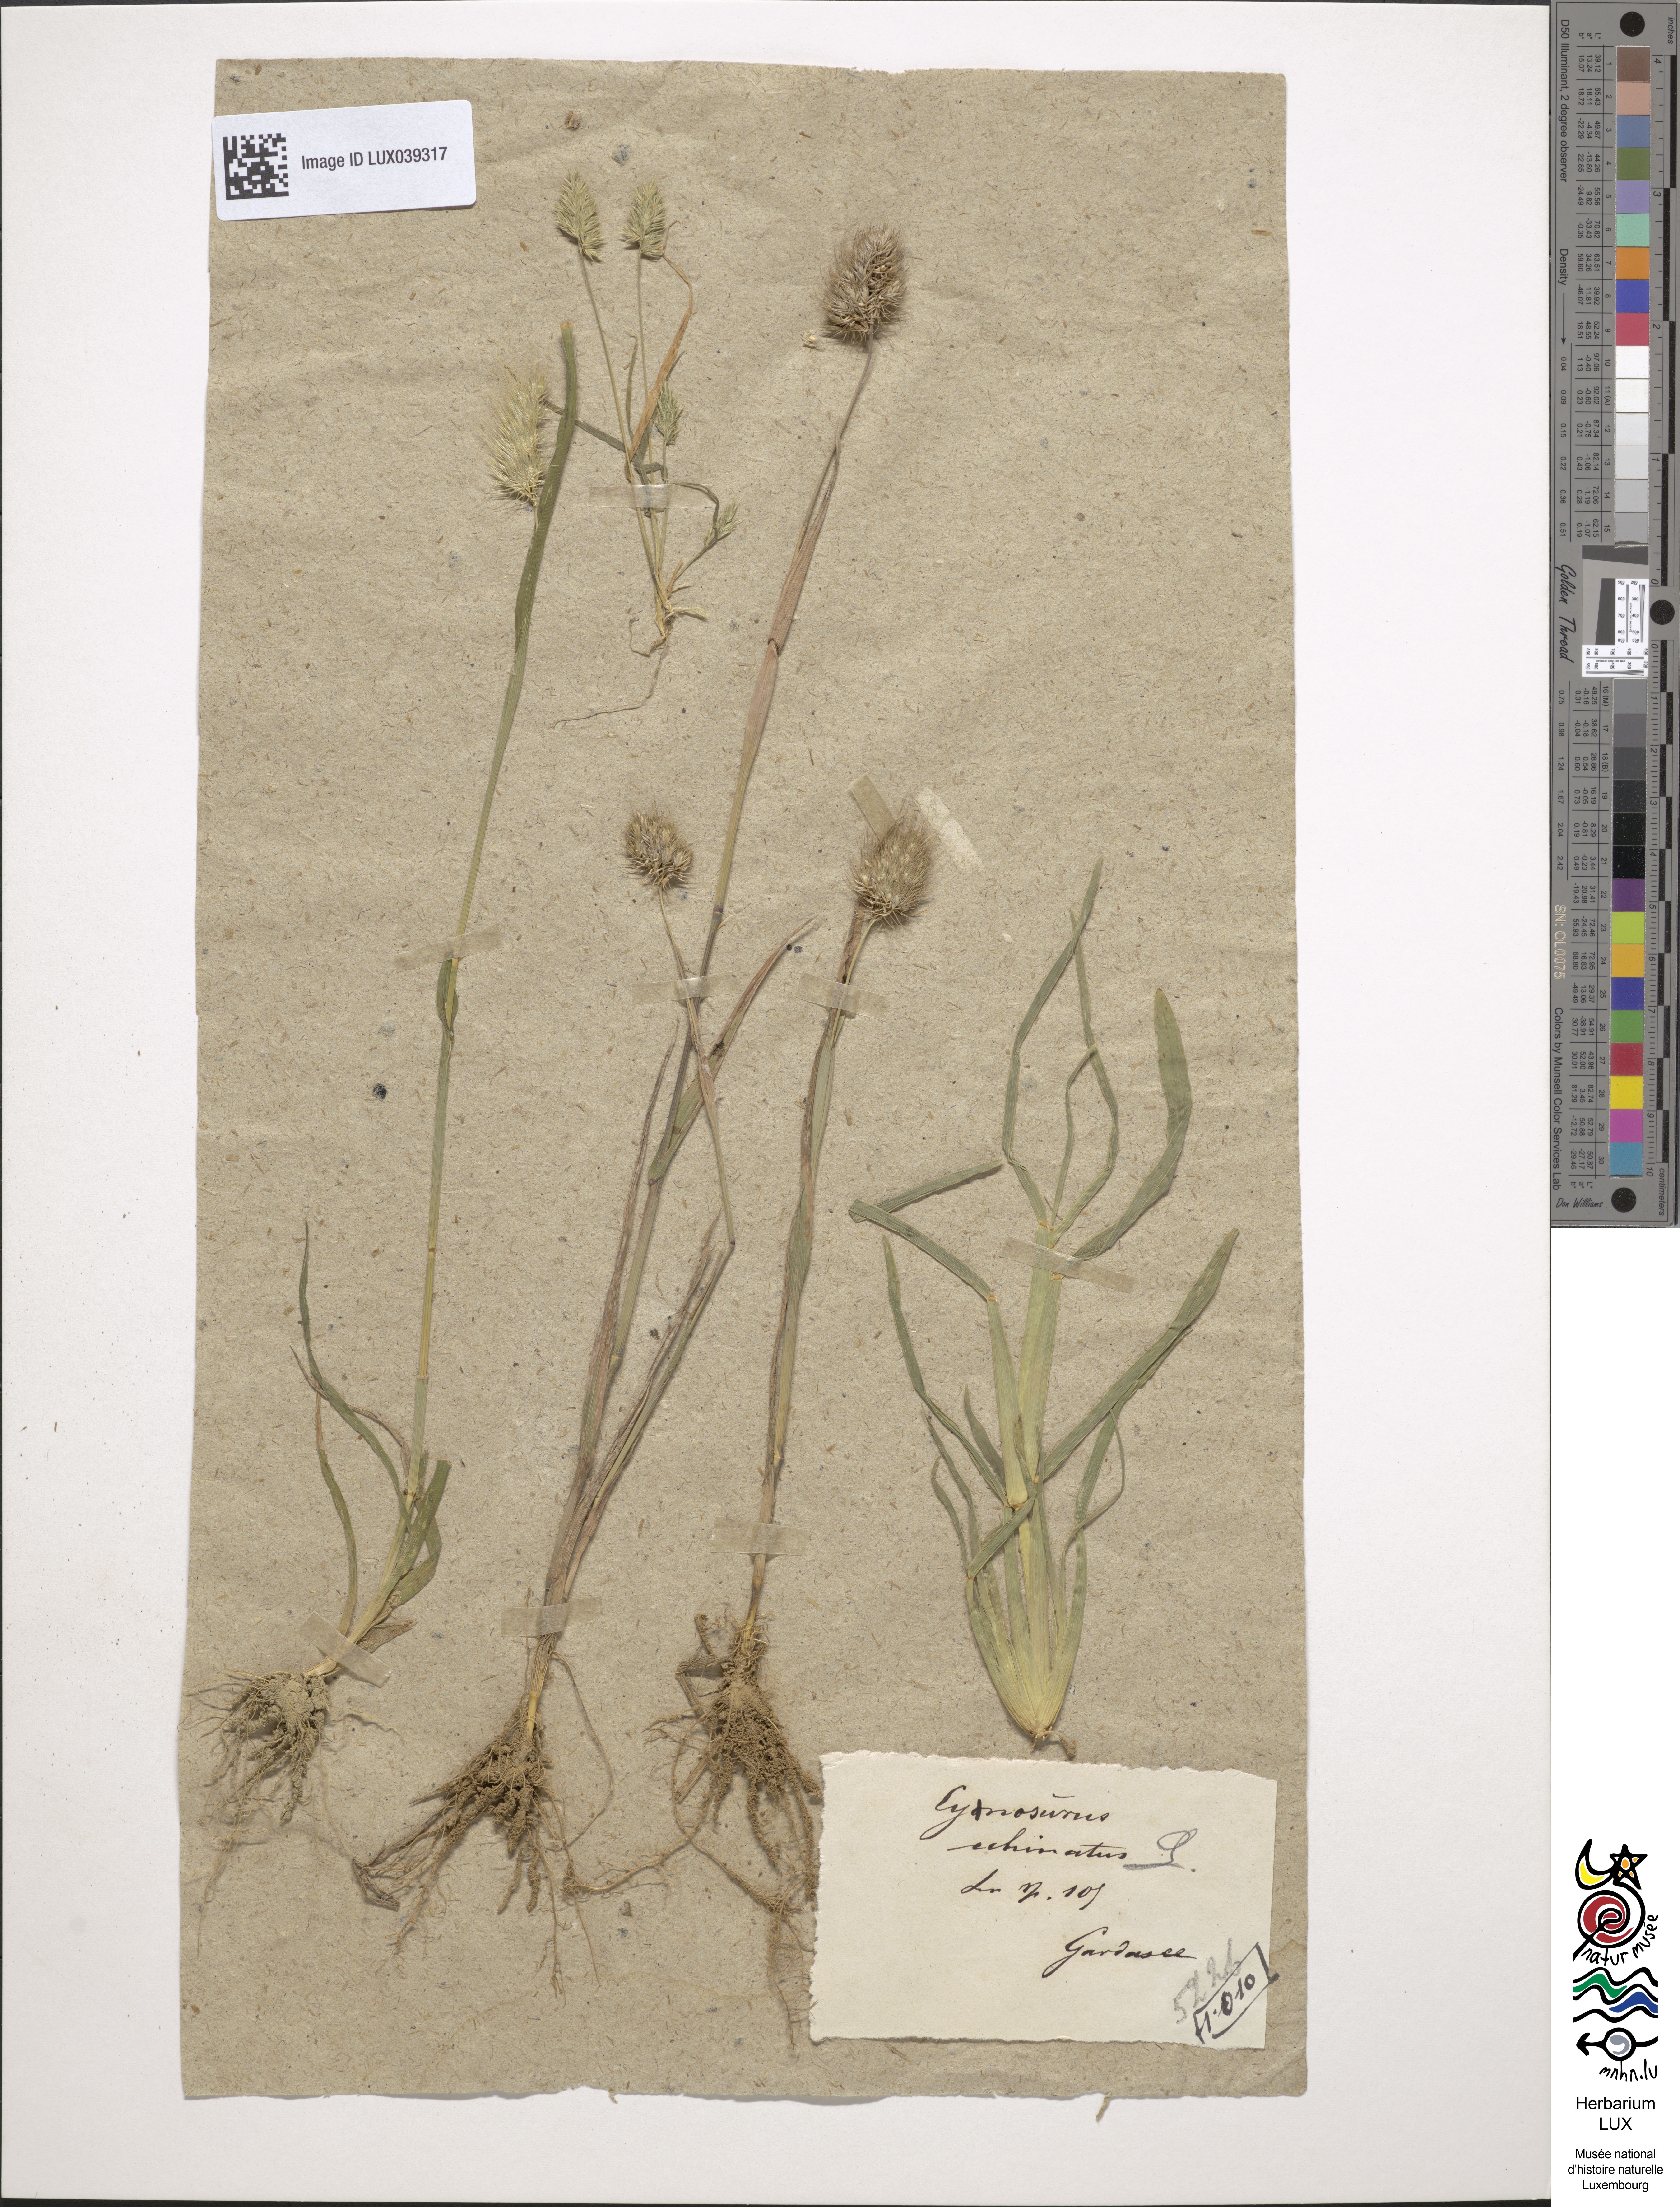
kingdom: Plantae
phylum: Tracheophyta
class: Liliopsida
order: Poales
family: Poaceae
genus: Cynosurus
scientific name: Cynosurus echinatus
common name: Rough dog's-tail
